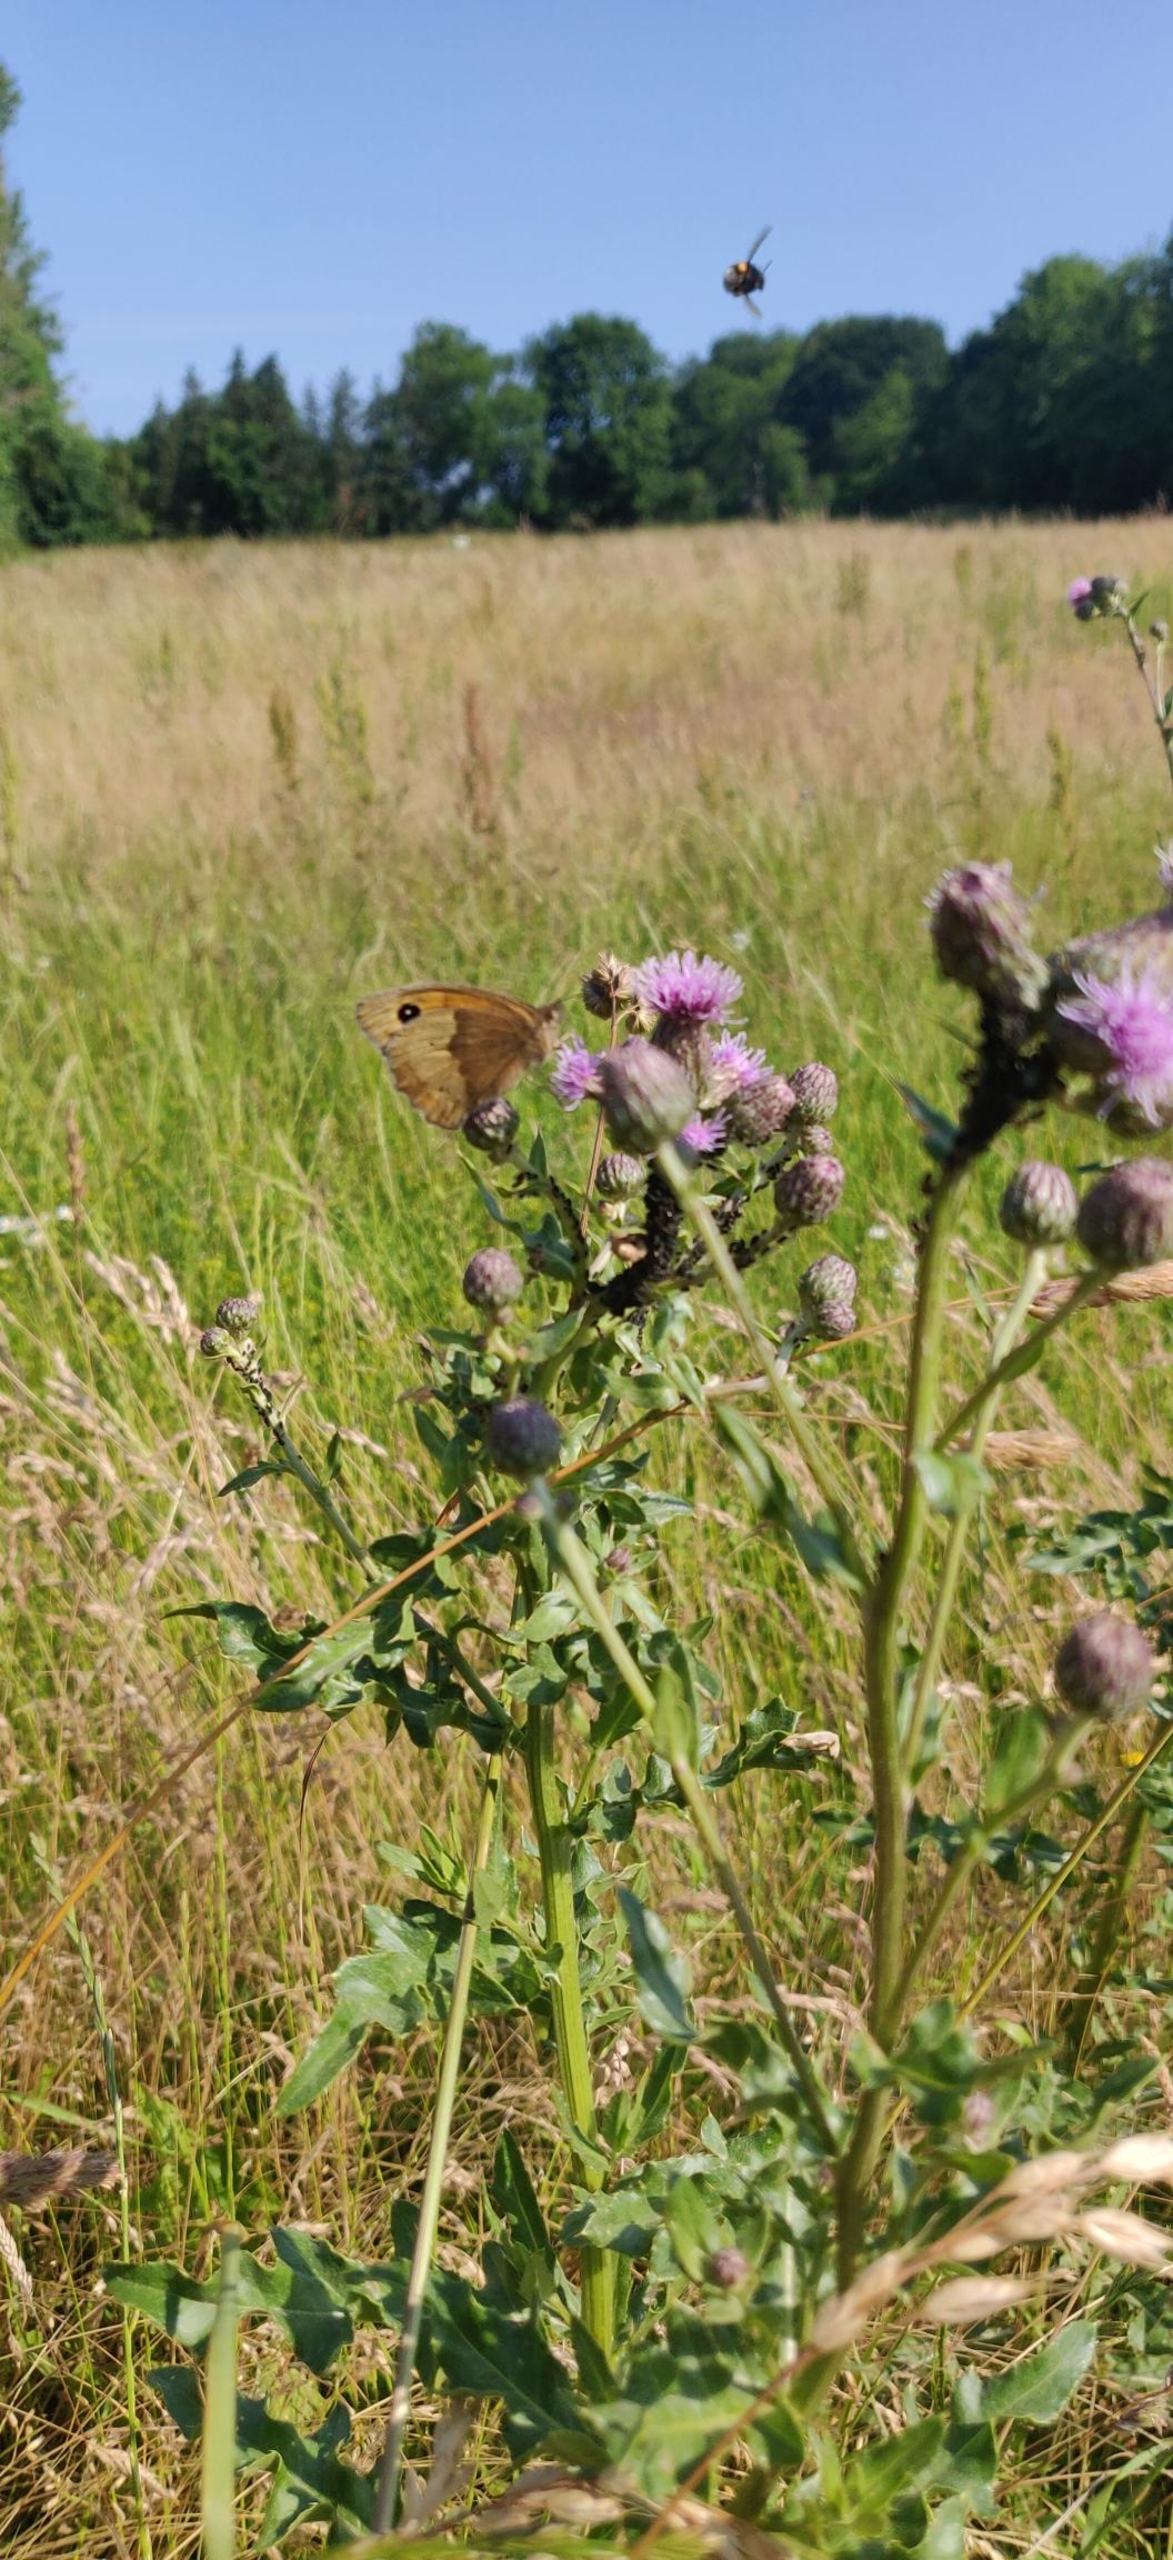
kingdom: Animalia
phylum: Arthropoda
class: Insecta
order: Lepidoptera
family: Nymphalidae
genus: Maniola
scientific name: Maniola jurtina
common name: Græsrandøje
